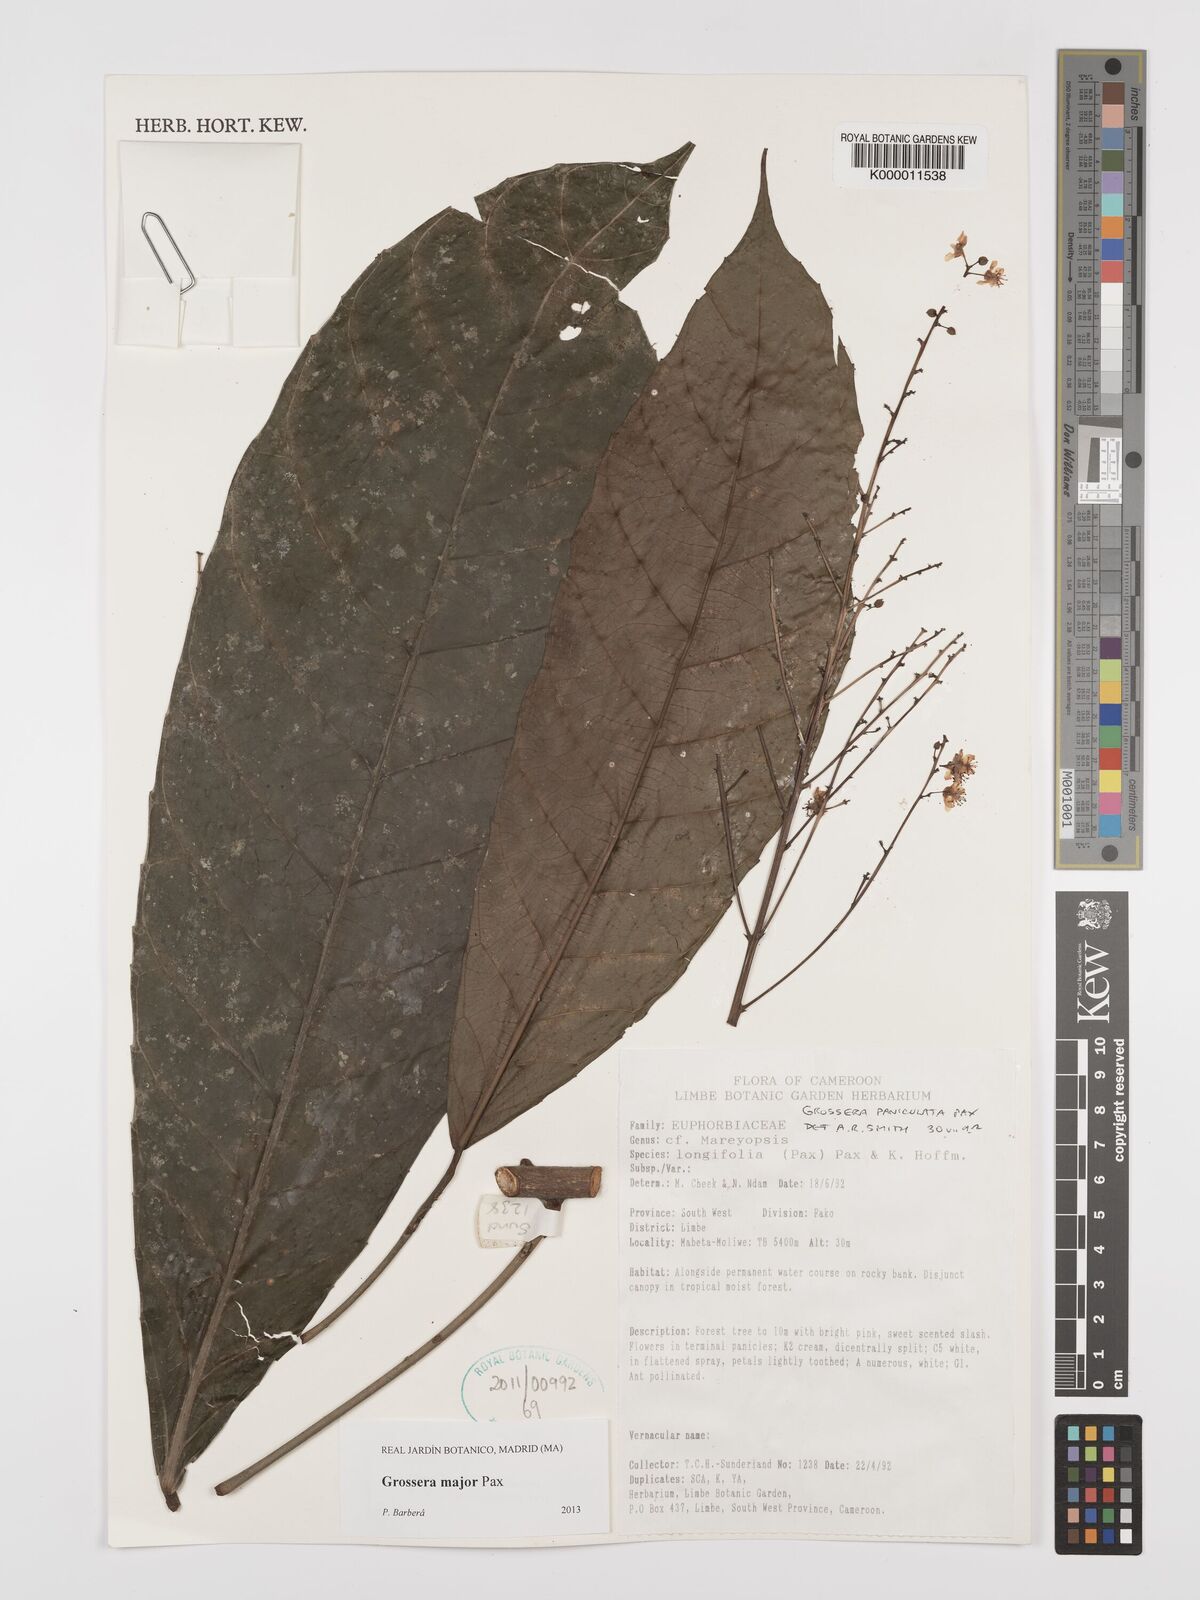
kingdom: Plantae
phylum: Tracheophyta
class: Magnoliopsida
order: Malpighiales
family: Euphorbiaceae
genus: Grossera
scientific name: Grossera paniculata
